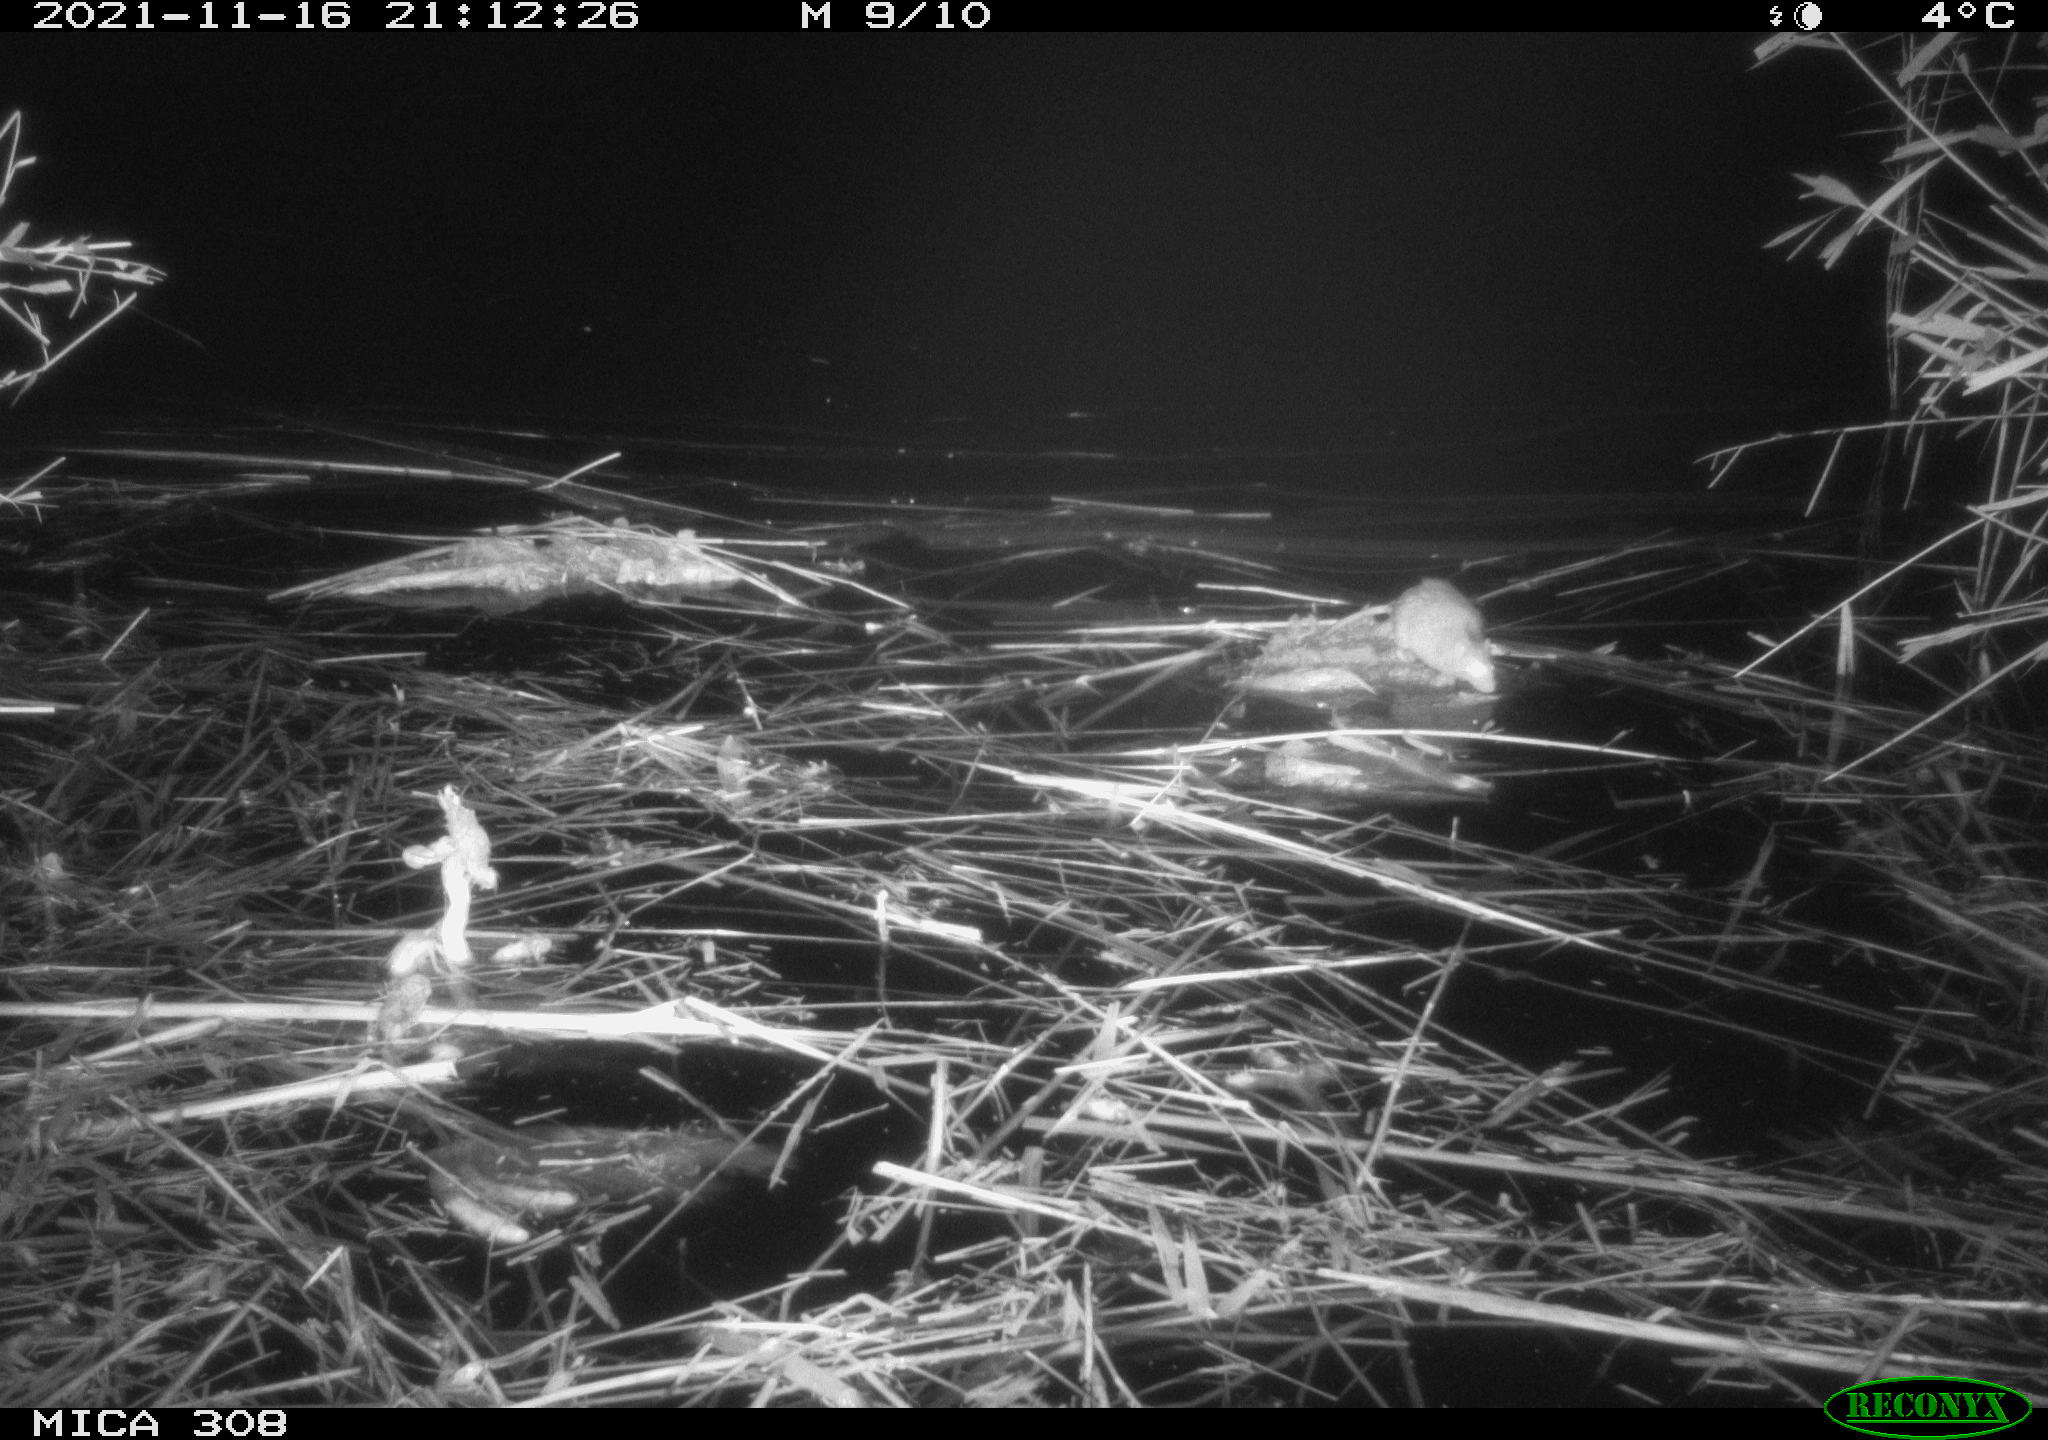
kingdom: Animalia
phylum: Chordata
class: Mammalia
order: Rodentia
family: Muridae
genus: Rattus
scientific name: Rattus norvegicus
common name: Brown rat
